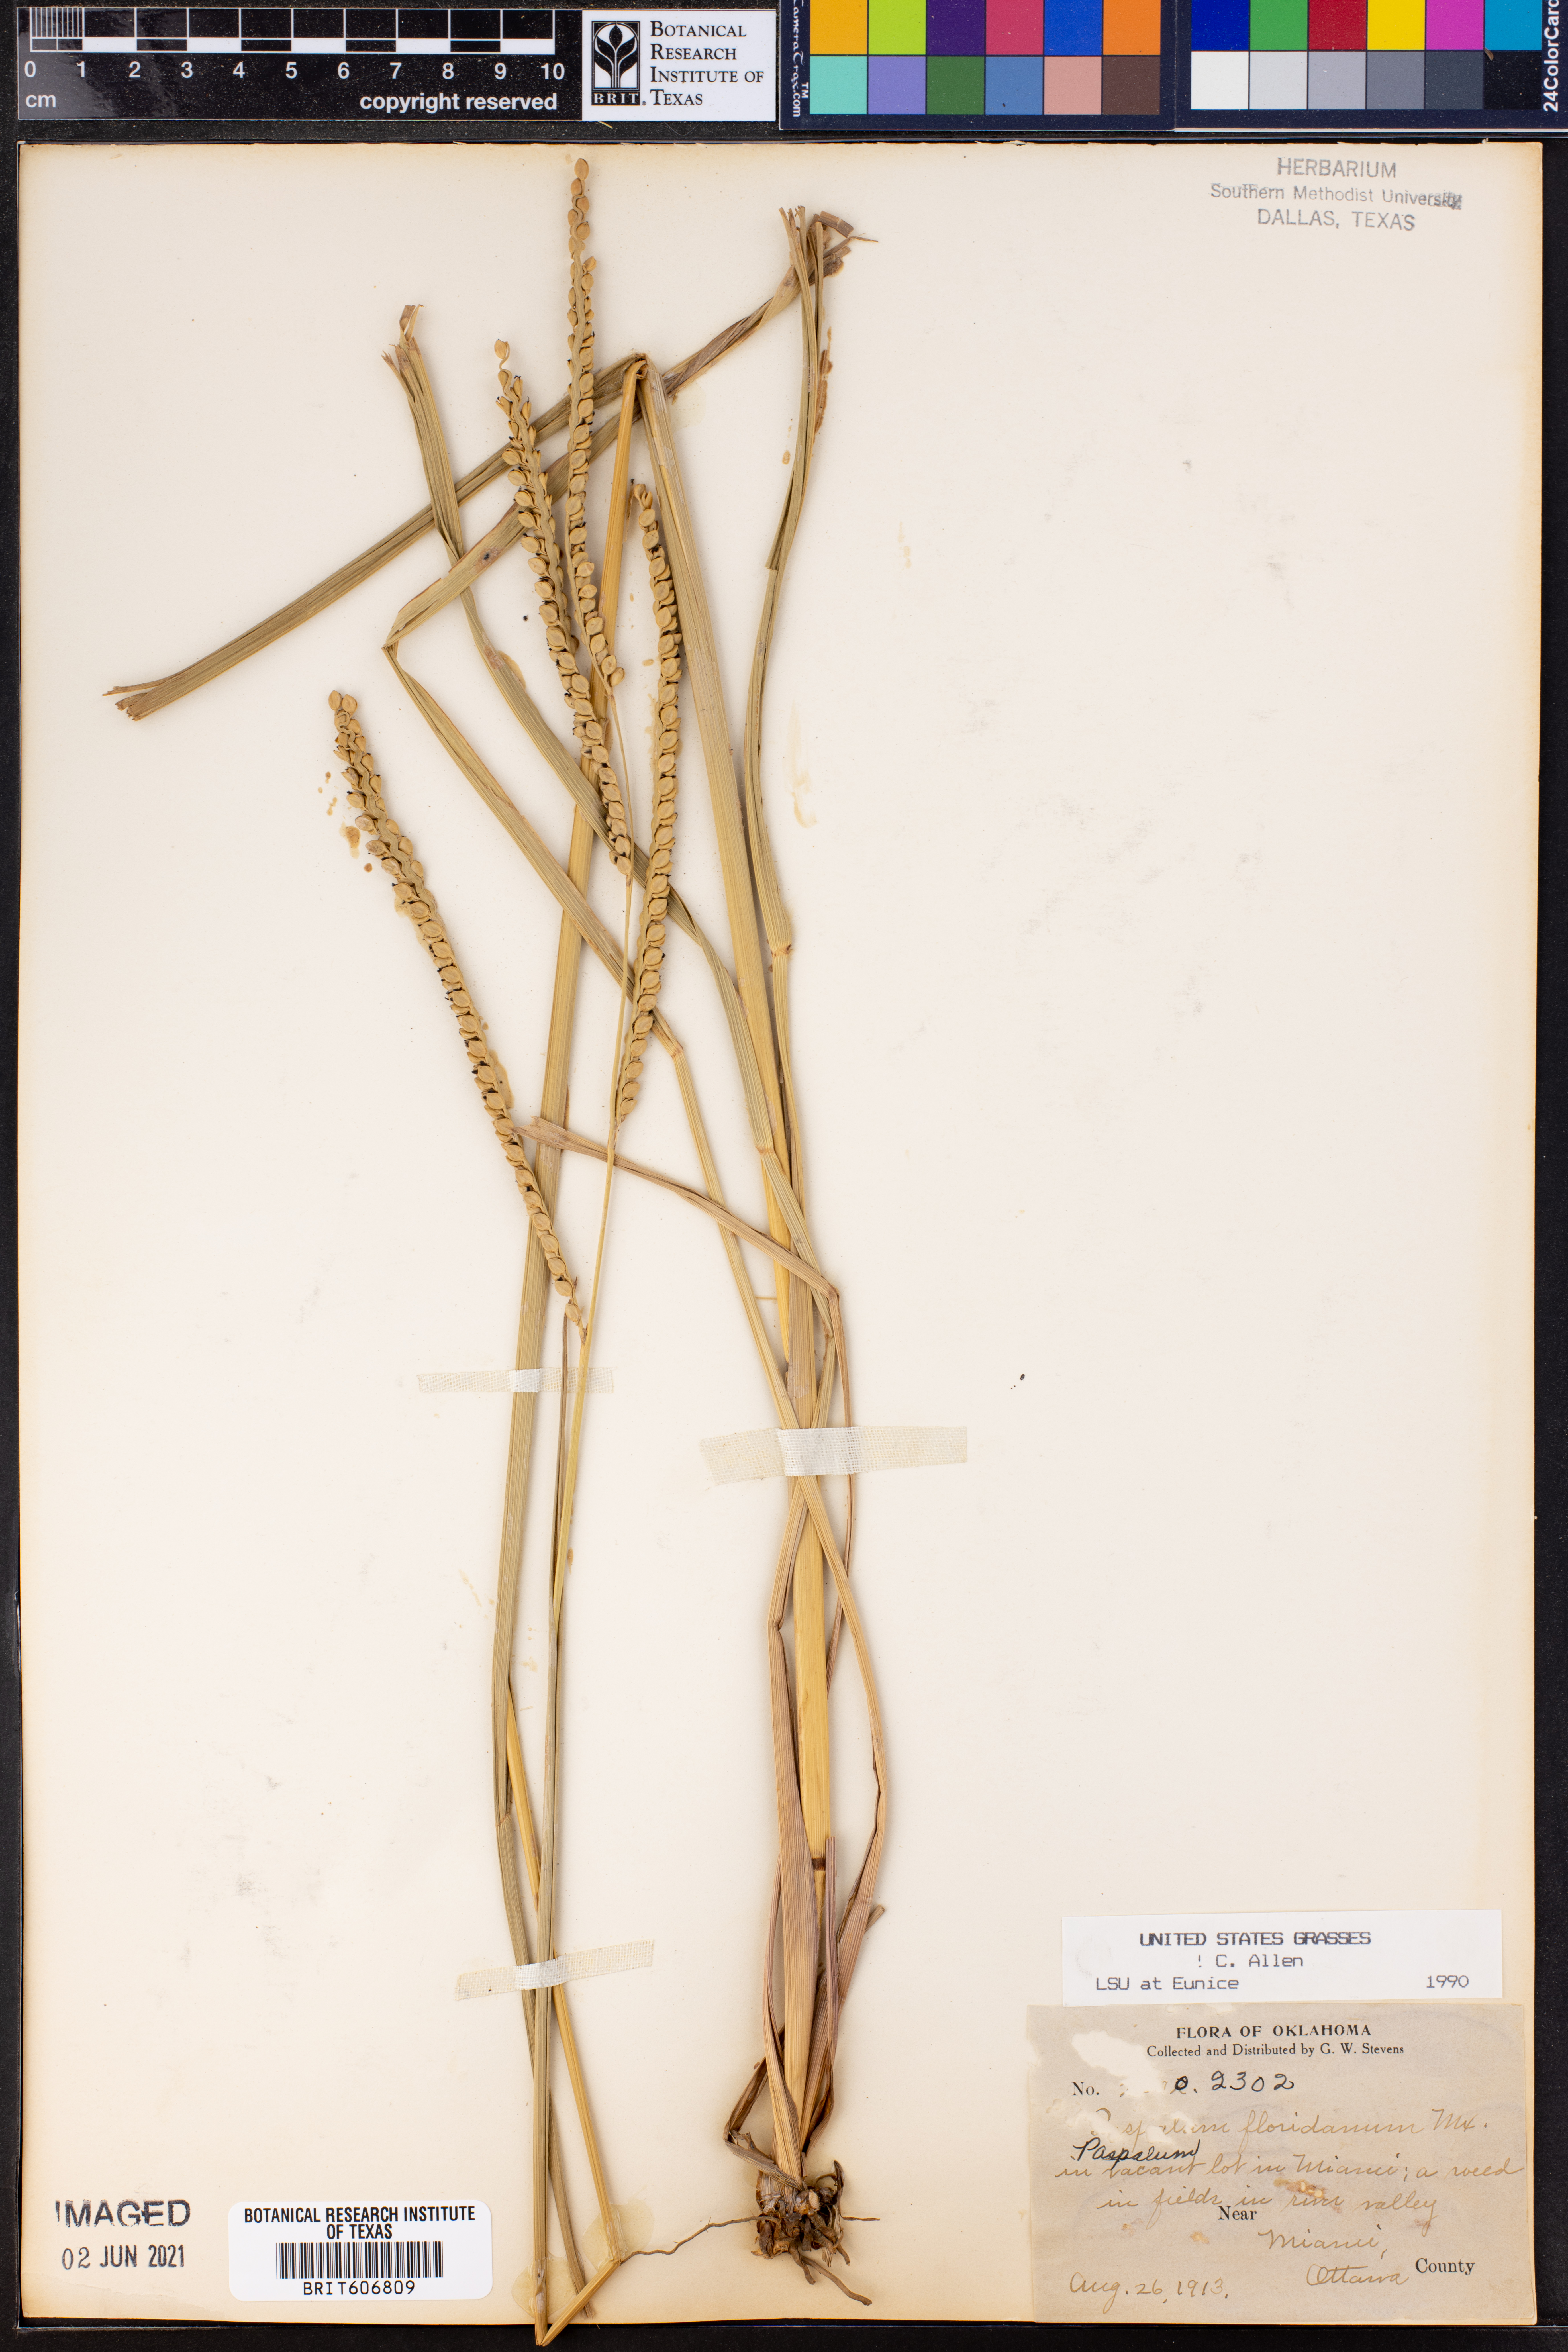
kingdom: Plantae
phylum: Tracheophyta
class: Liliopsida
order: Poales
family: Poaceae
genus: Paspalum
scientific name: Paspalum floridanum
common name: Florida paspalum
